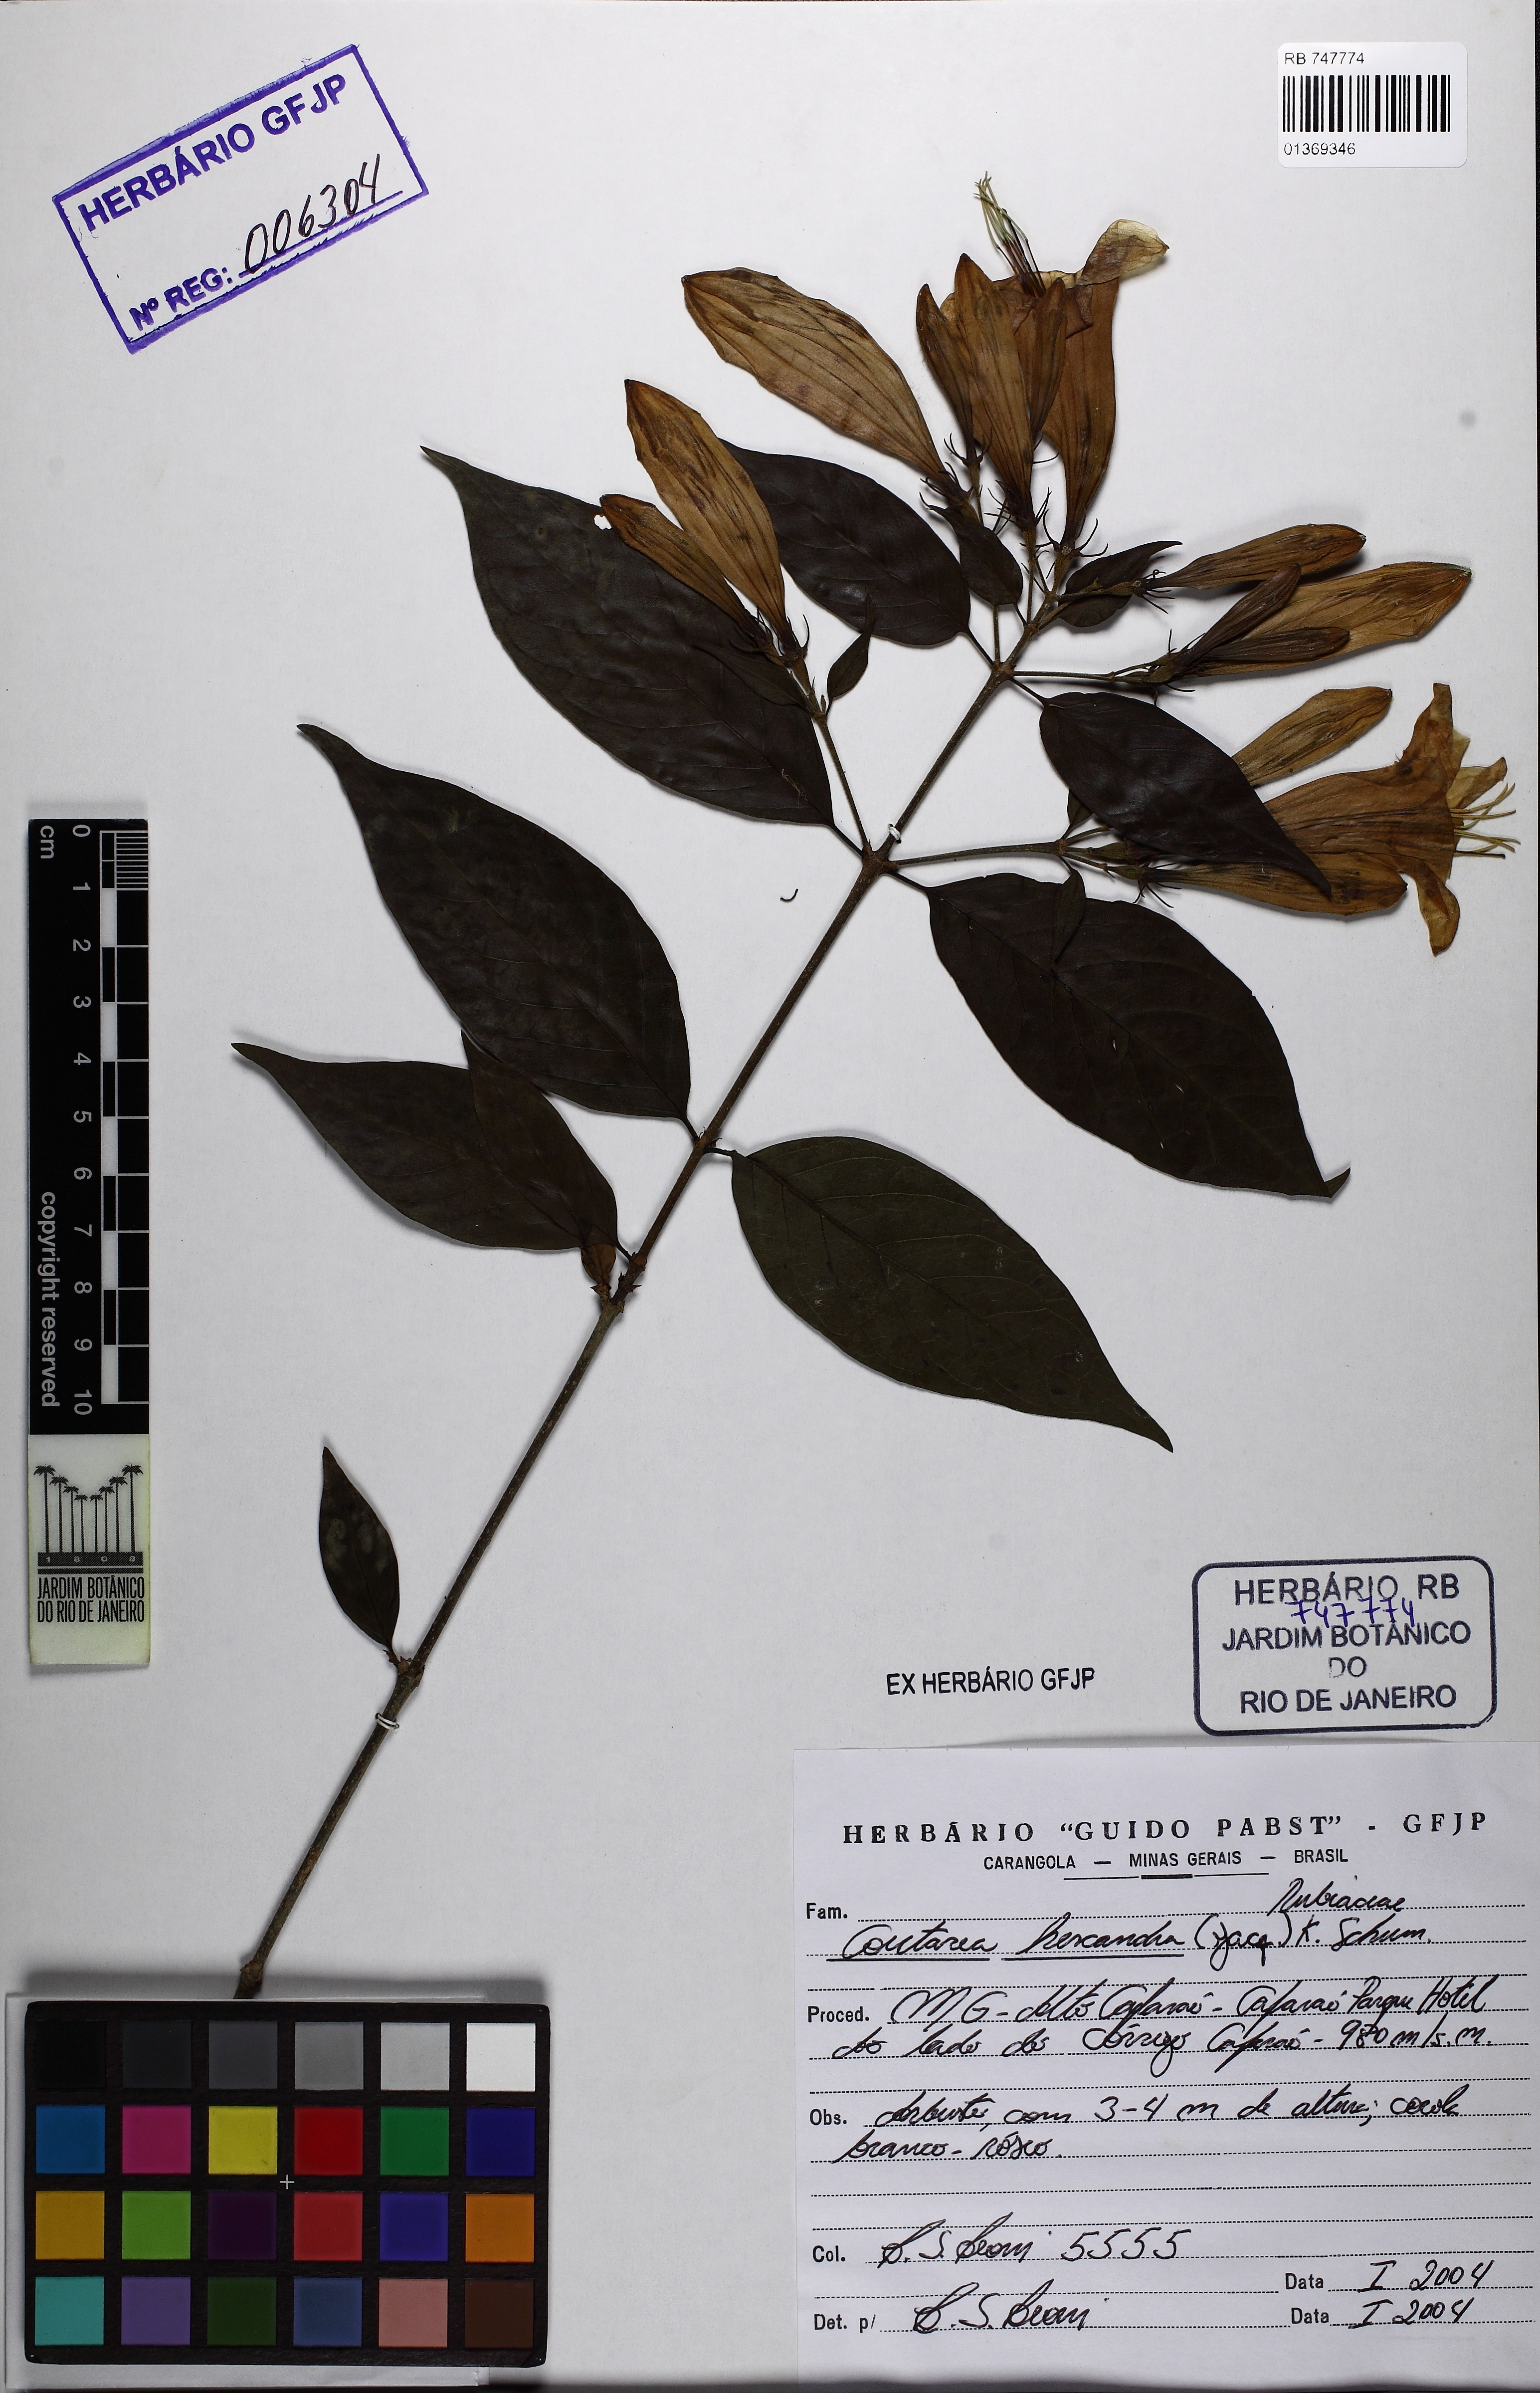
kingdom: Plantae
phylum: Tracheophyta
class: Magnoliopsida
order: Gentianales
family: Rubiaceae
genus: Coutarea
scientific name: Coutarea hexandra
